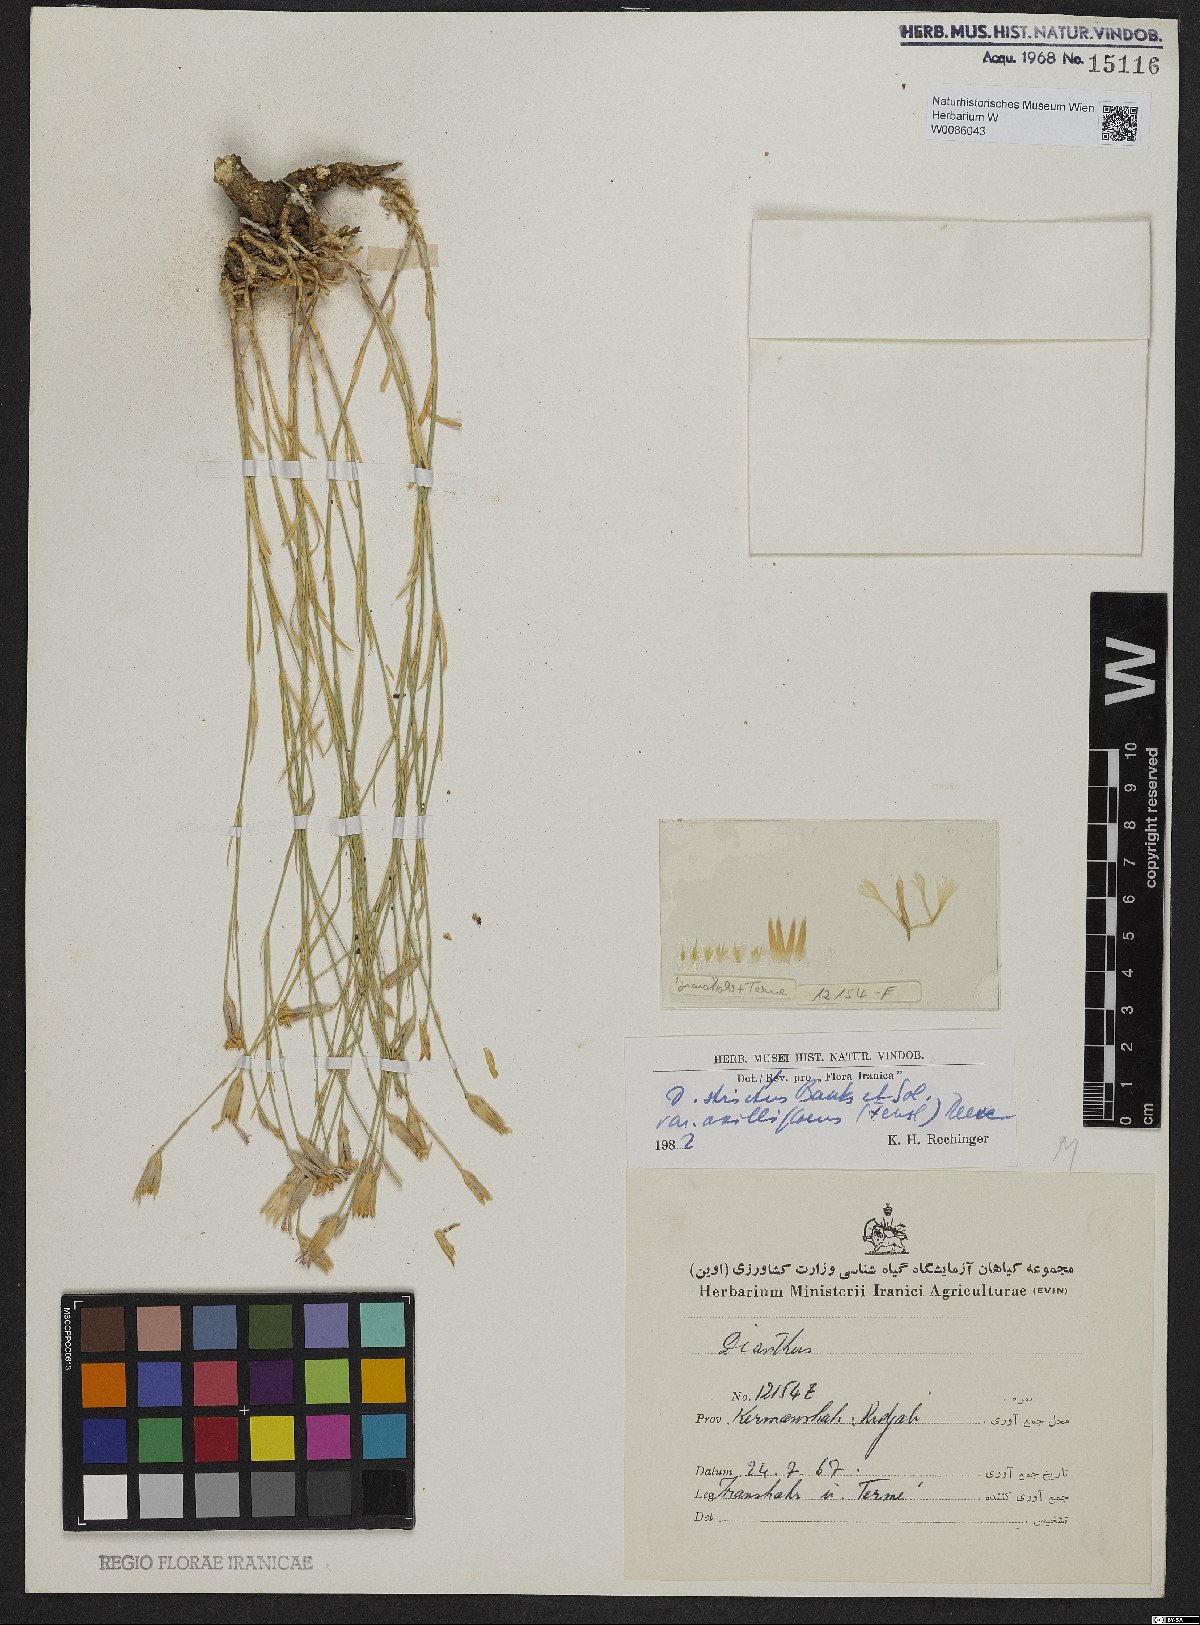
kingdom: Plantae
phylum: Tracheophyta
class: Magnoliopsida
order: Caryophyllales
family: Caryophyllaceae
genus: Dianthus
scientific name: Dianthus strictus
